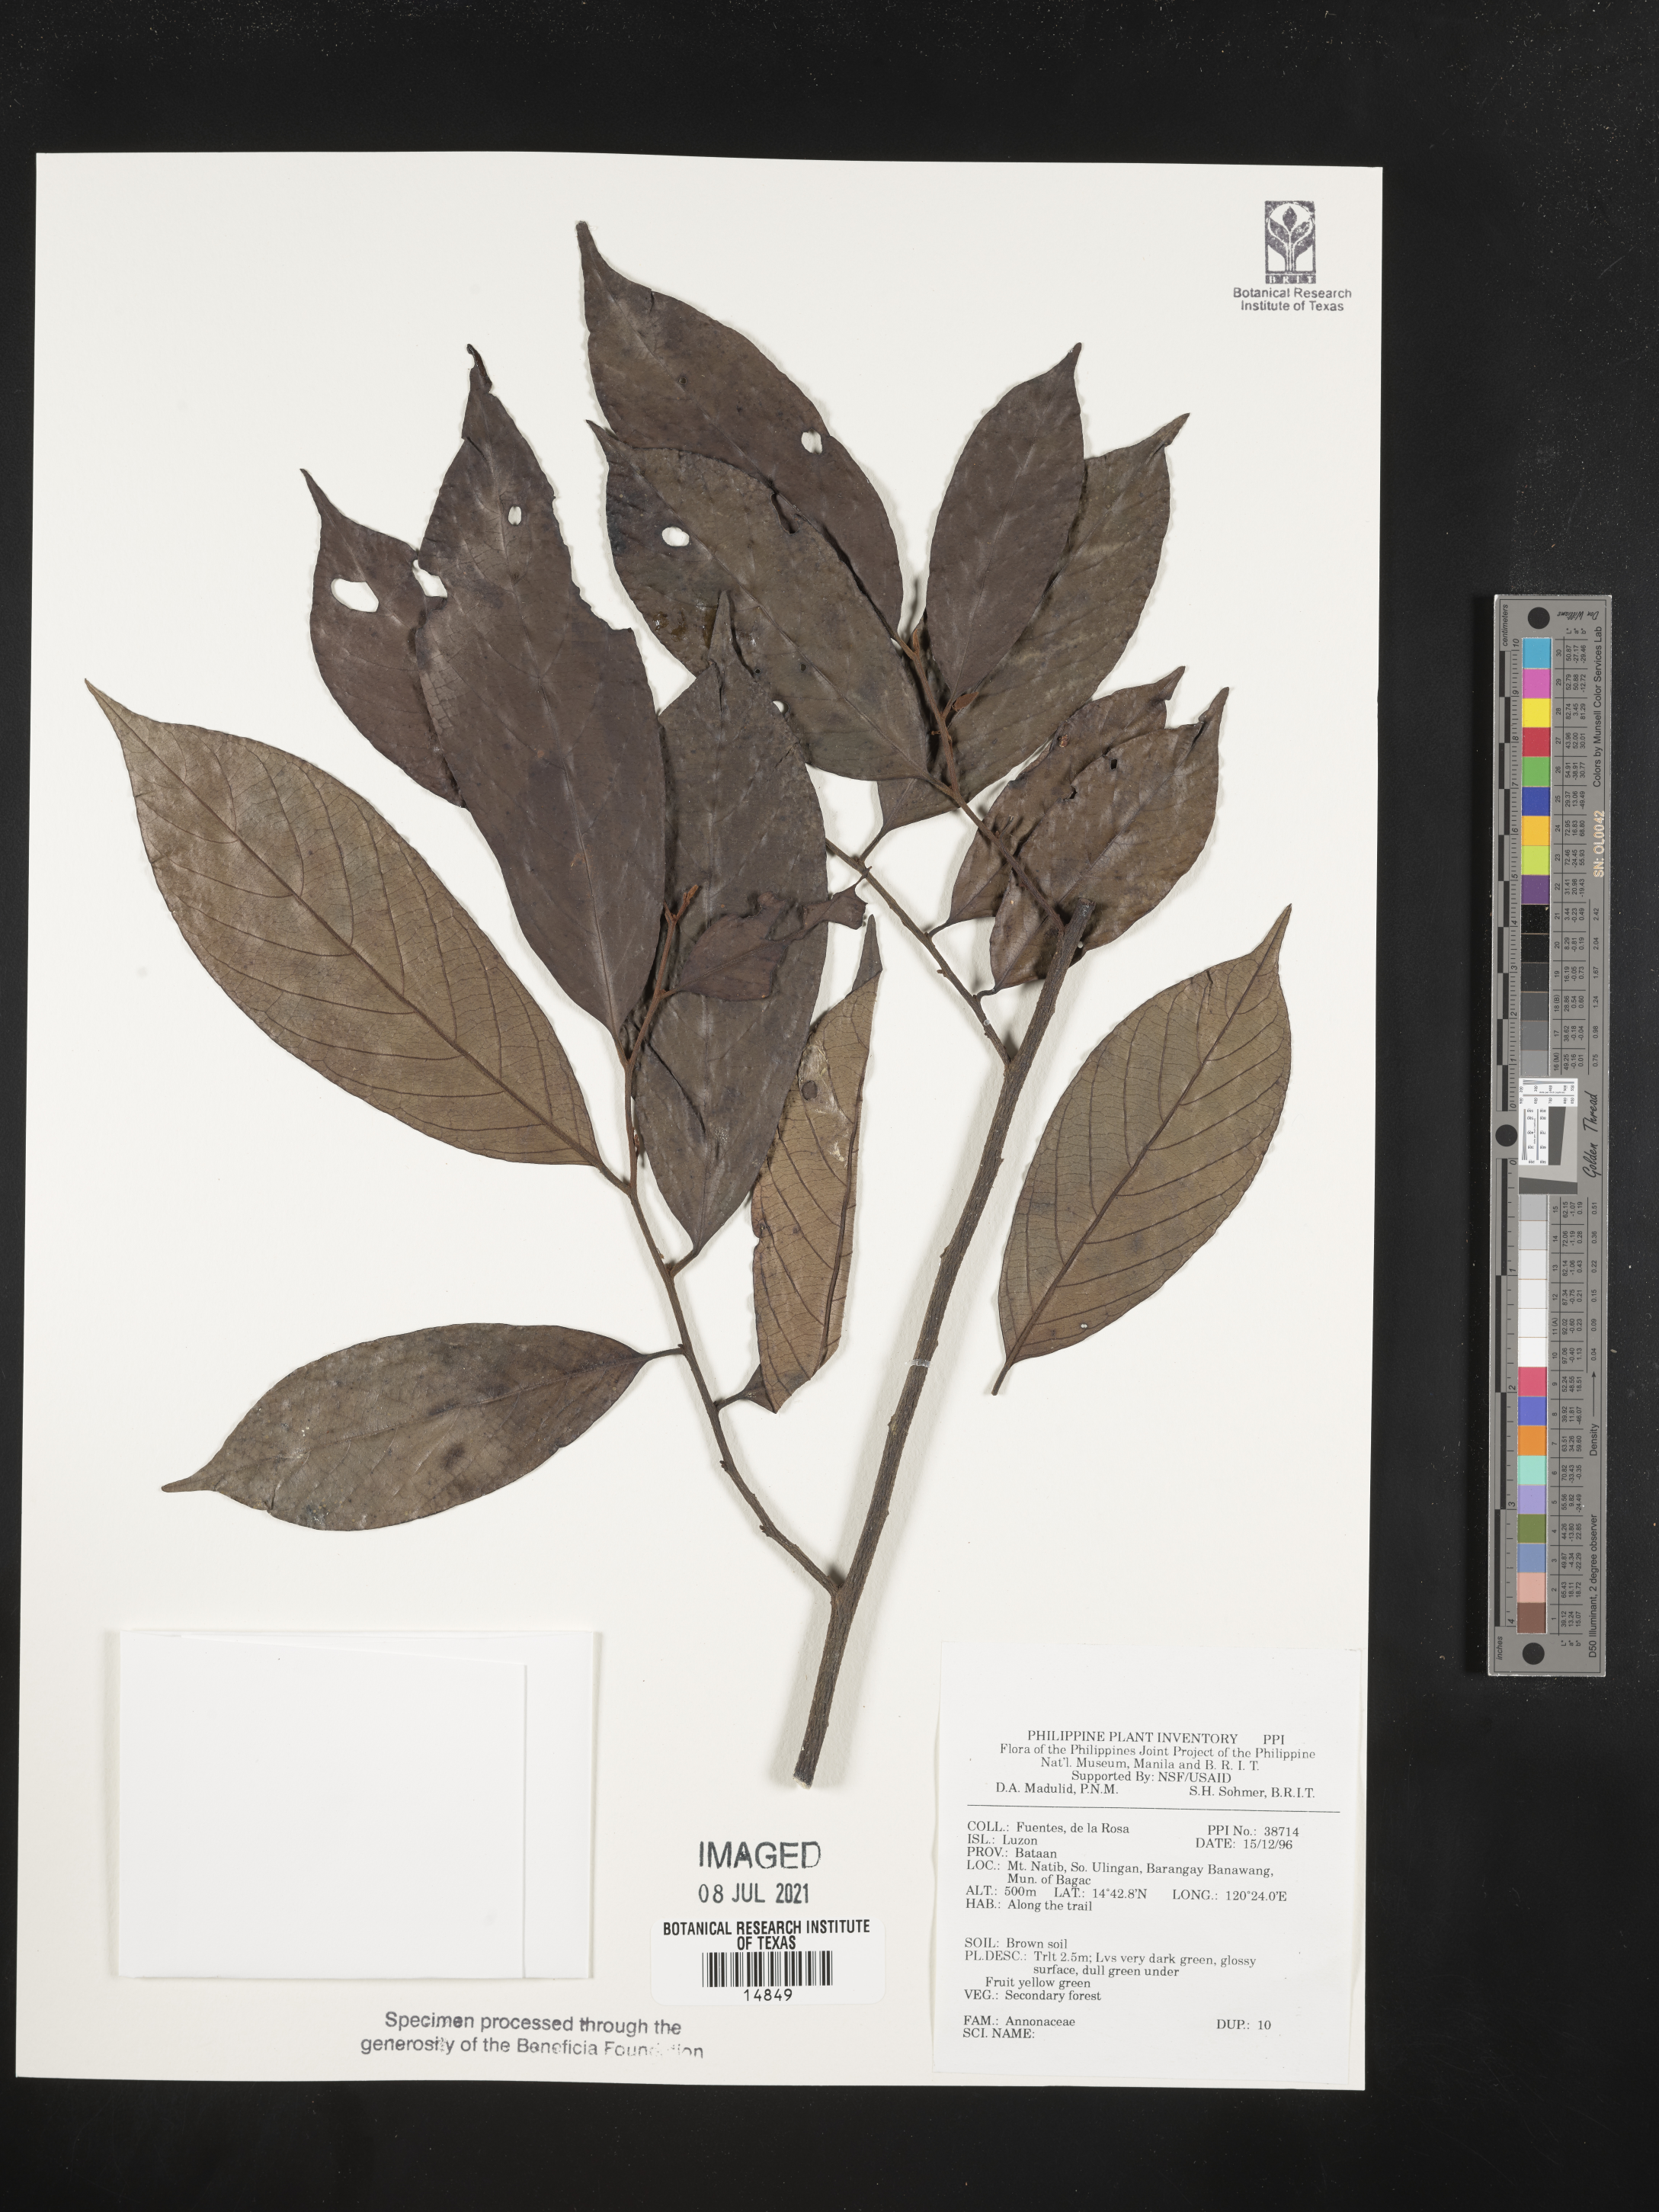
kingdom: Plantae
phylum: Tracheophyta
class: Magnoliopsida
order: Magnoliales
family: Annonaceae
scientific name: Annonaceae
